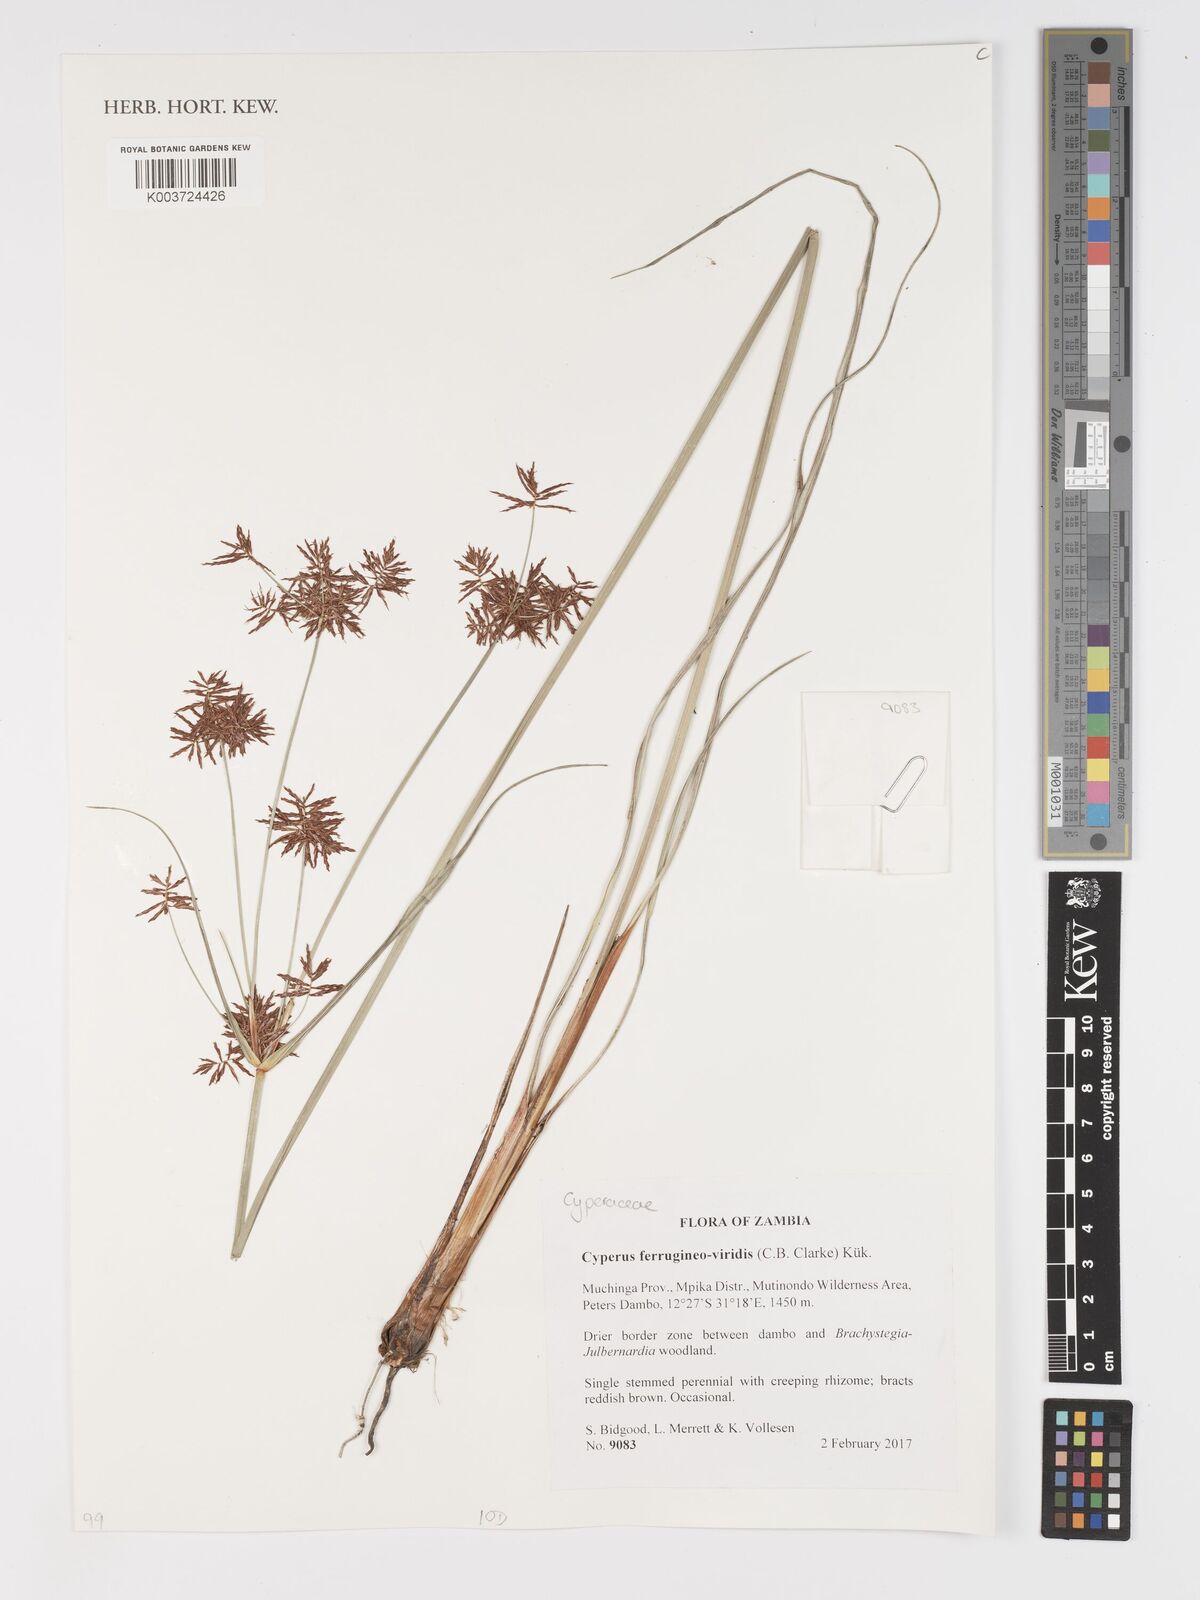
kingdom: Plantae
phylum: Tracheophyta
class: Liliopsida
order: Poales
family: Cyperaceae
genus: Cyperus
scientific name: Cyperus ferrugineoviridis
